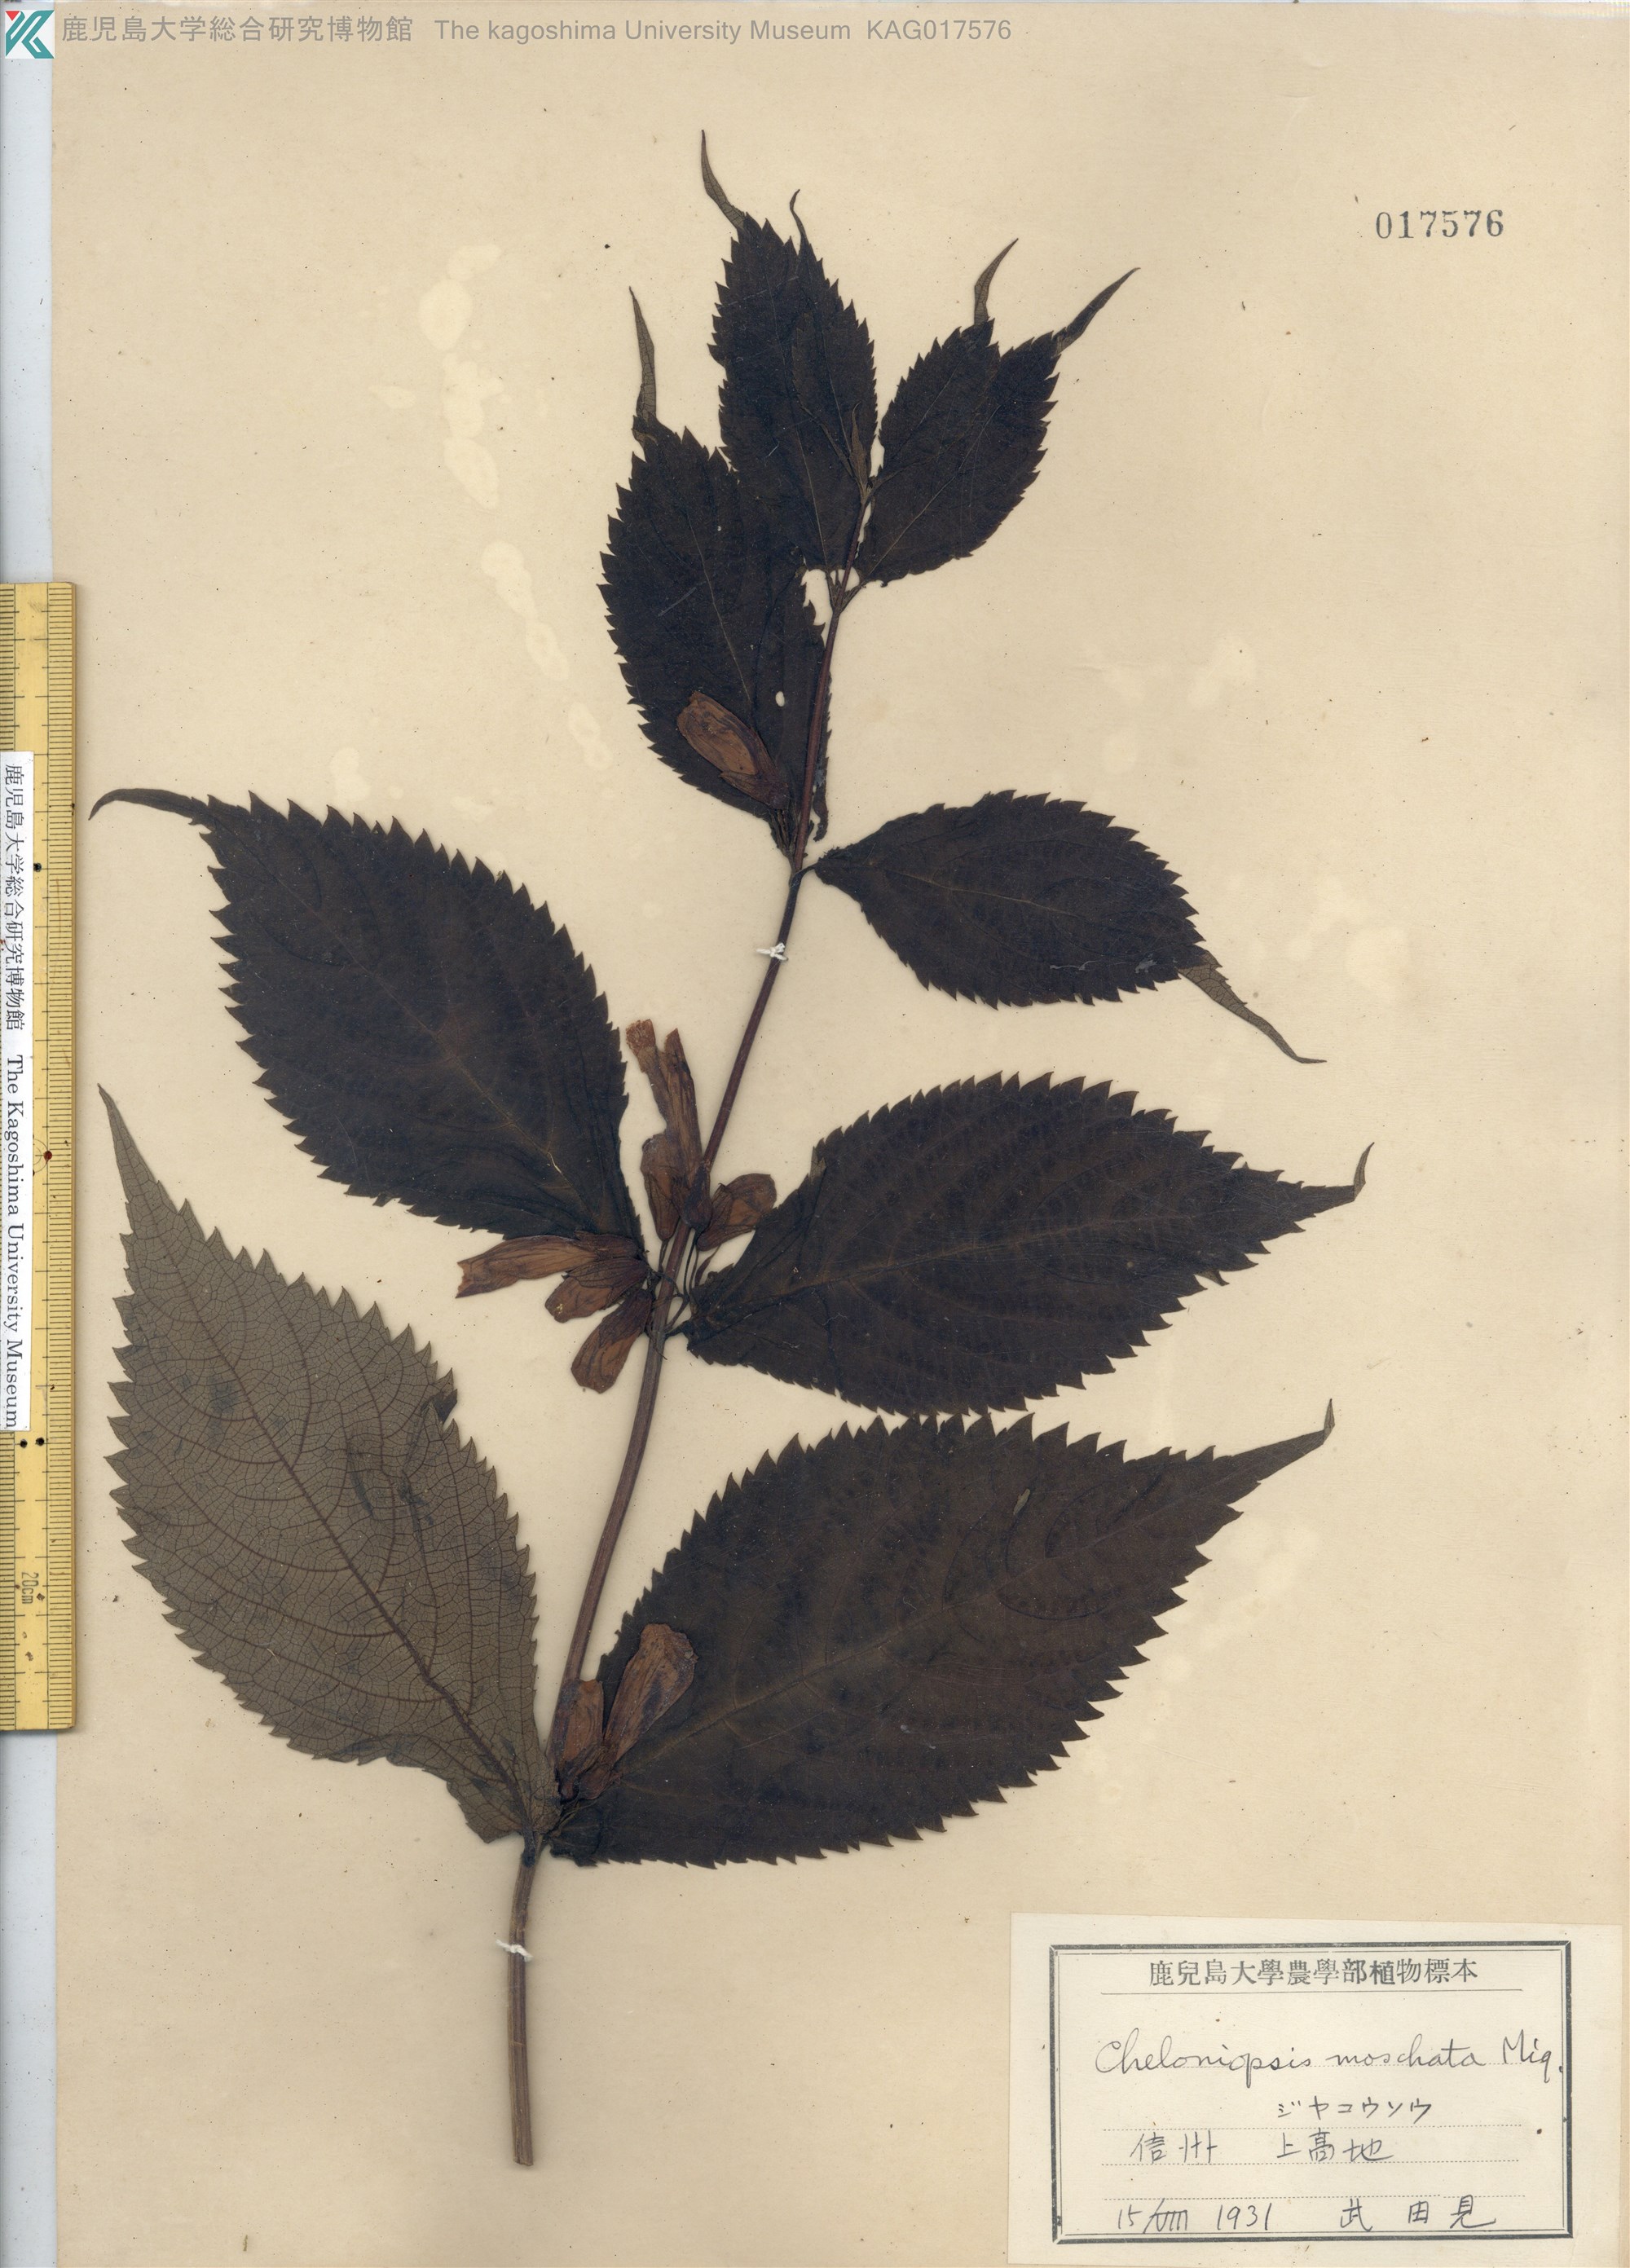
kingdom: Plantae
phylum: Tracheophyta
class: Magnoliopsida
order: Lamiales
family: Lamiaceae
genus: Chelonopsis
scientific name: Chelonopsis moschata
